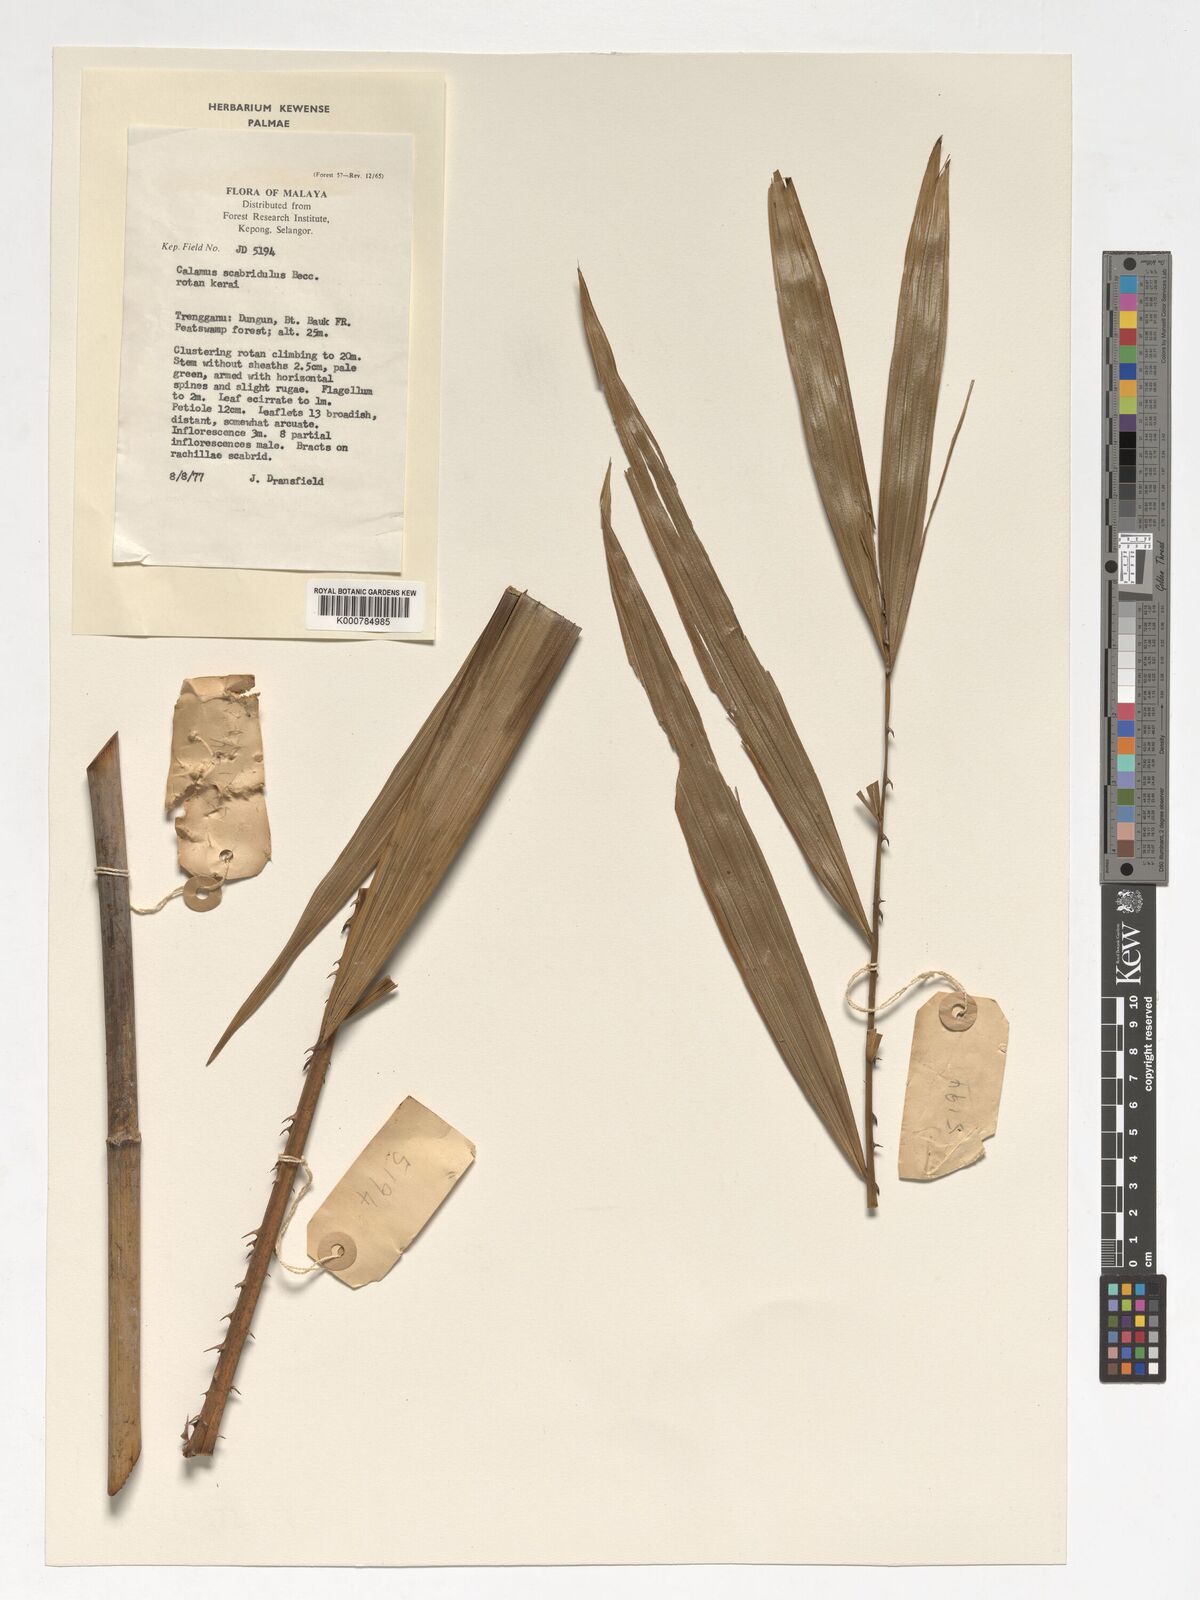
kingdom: Plantae
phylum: Tracheophyta
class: Liliopsida
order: Arecales
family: Arecaceae
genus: Calamus
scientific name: Calamus scabridulus
